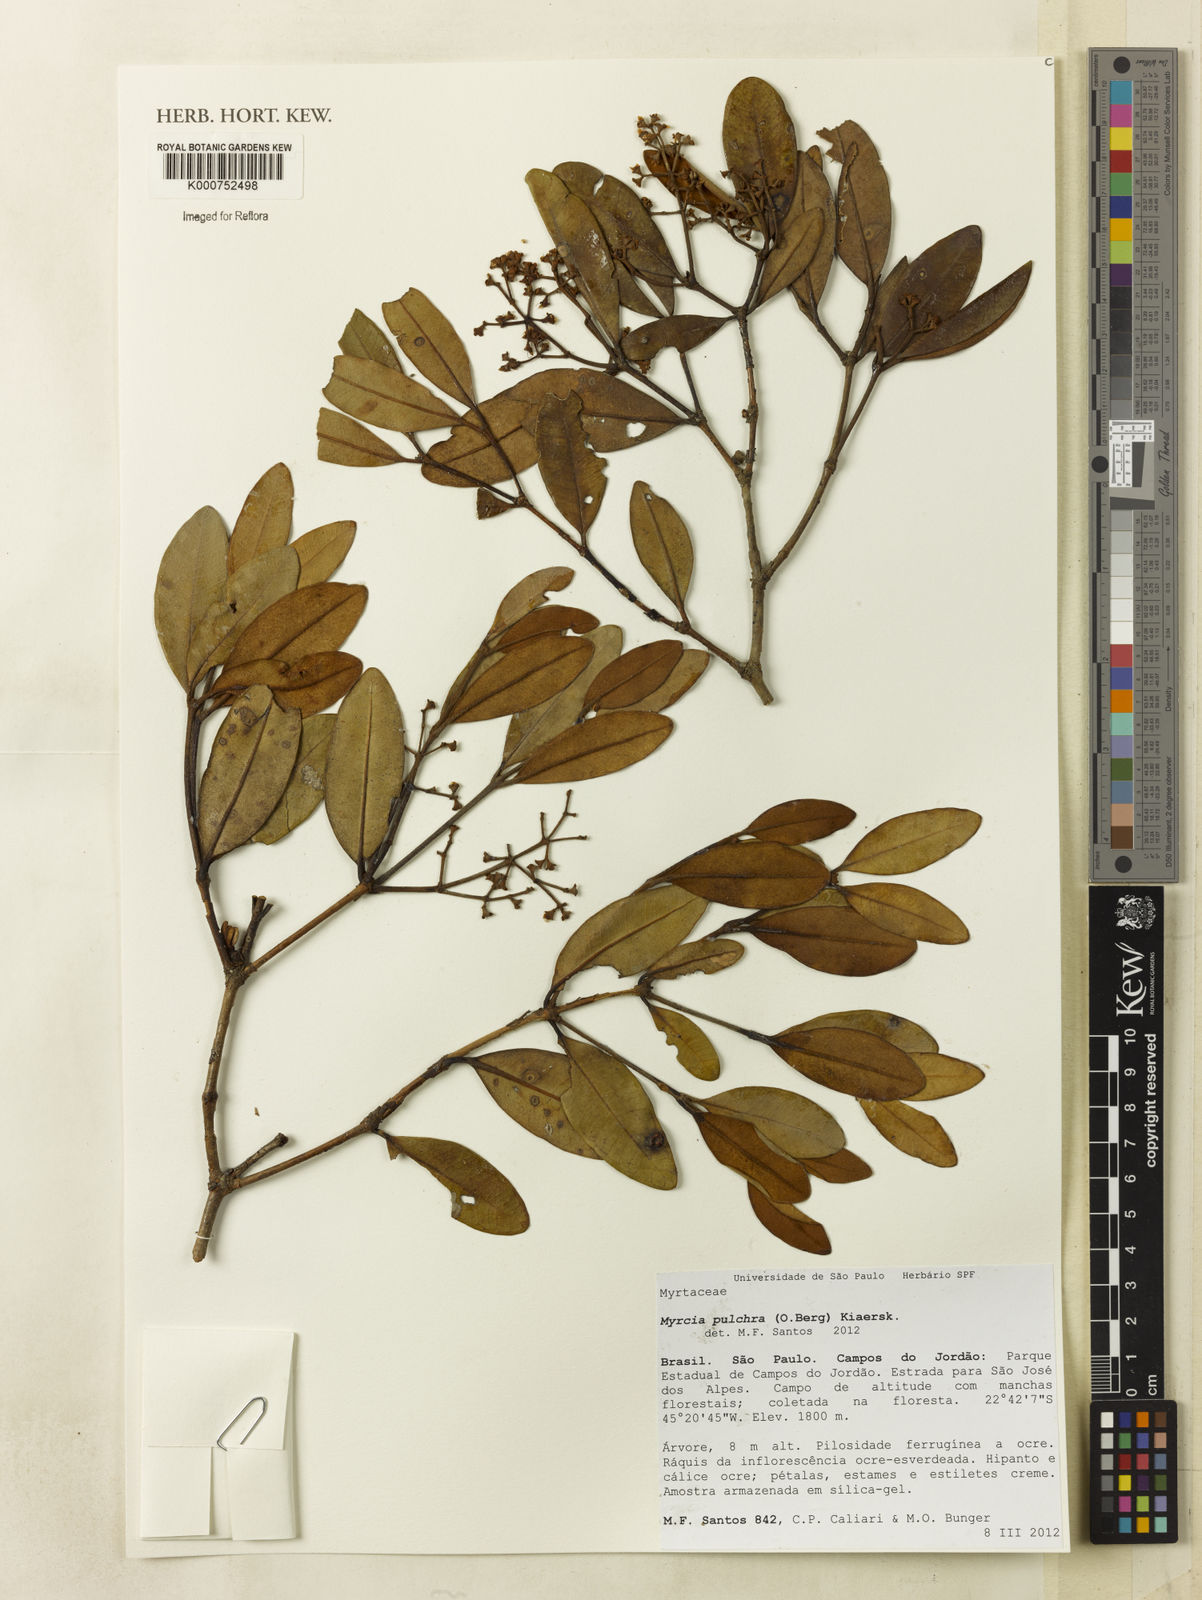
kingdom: Plantae
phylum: Tracheophyta
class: Magnoliopsida
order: Myrtales
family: Myrtaceae
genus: Myrcia
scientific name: Myrcia pulchra
